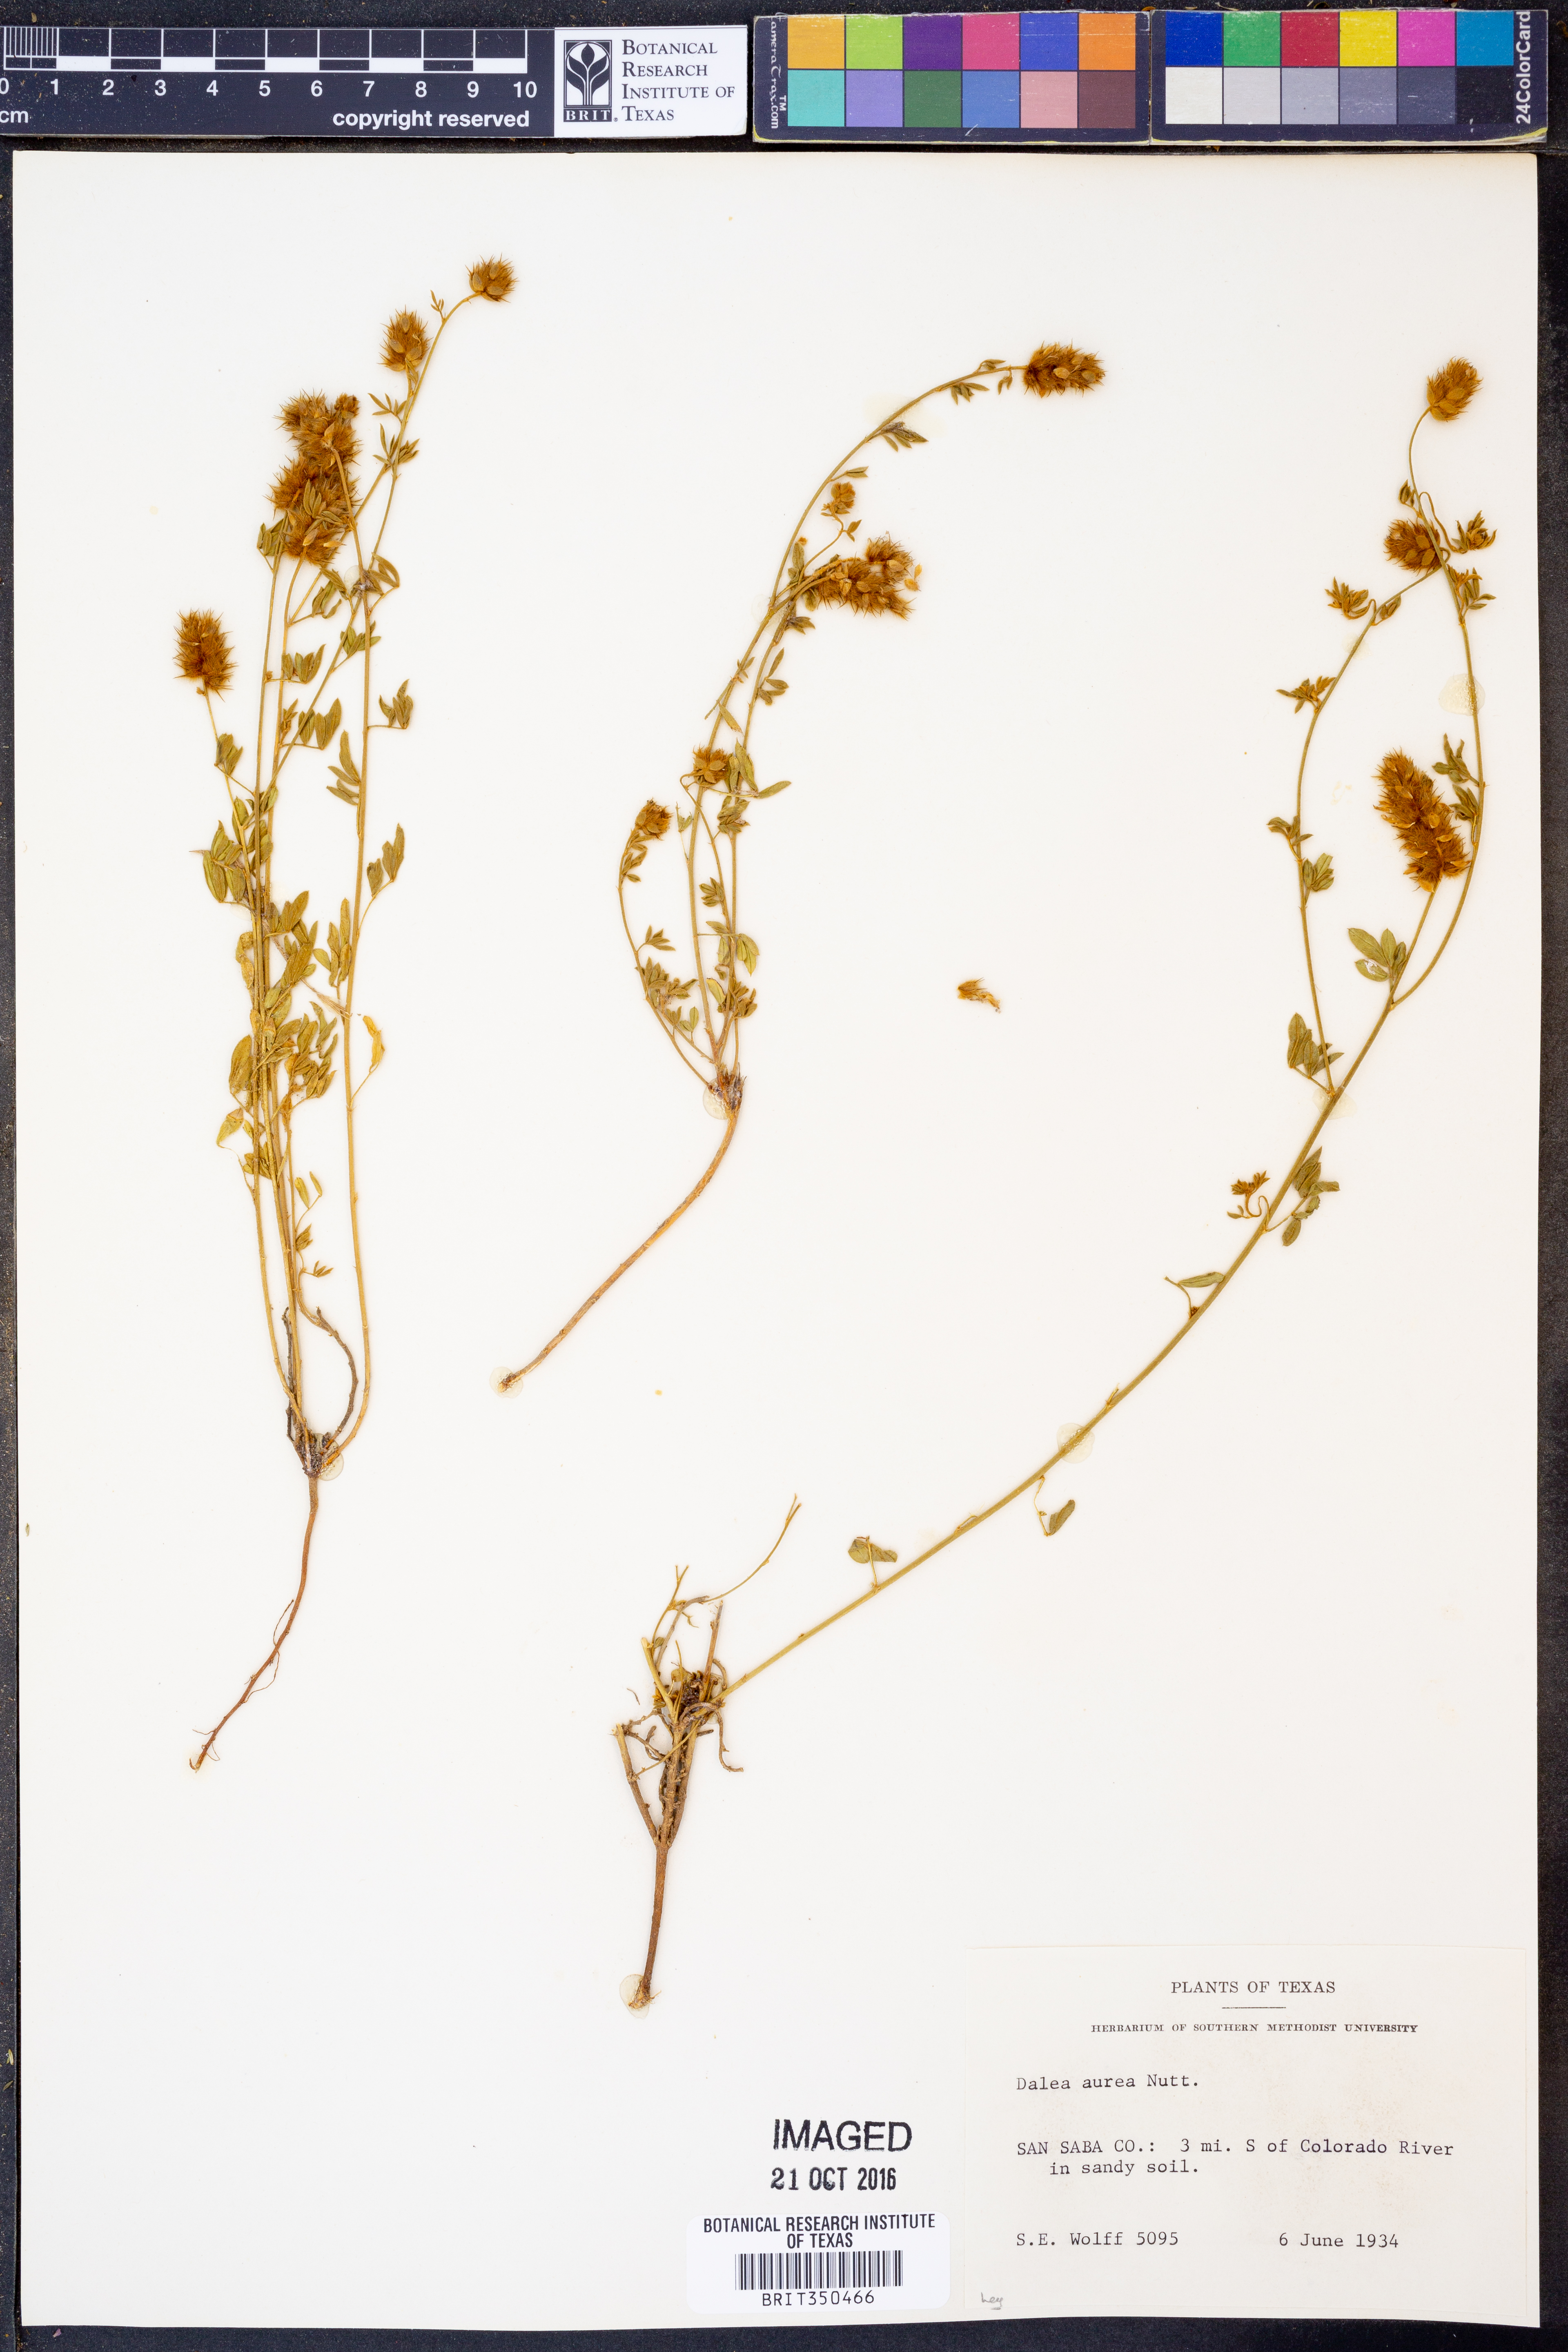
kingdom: Plantae
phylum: Tracheophyta
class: Magnoliopsida
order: Fabales
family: Fabaceae
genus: Dalea
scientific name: Dalea aurea
